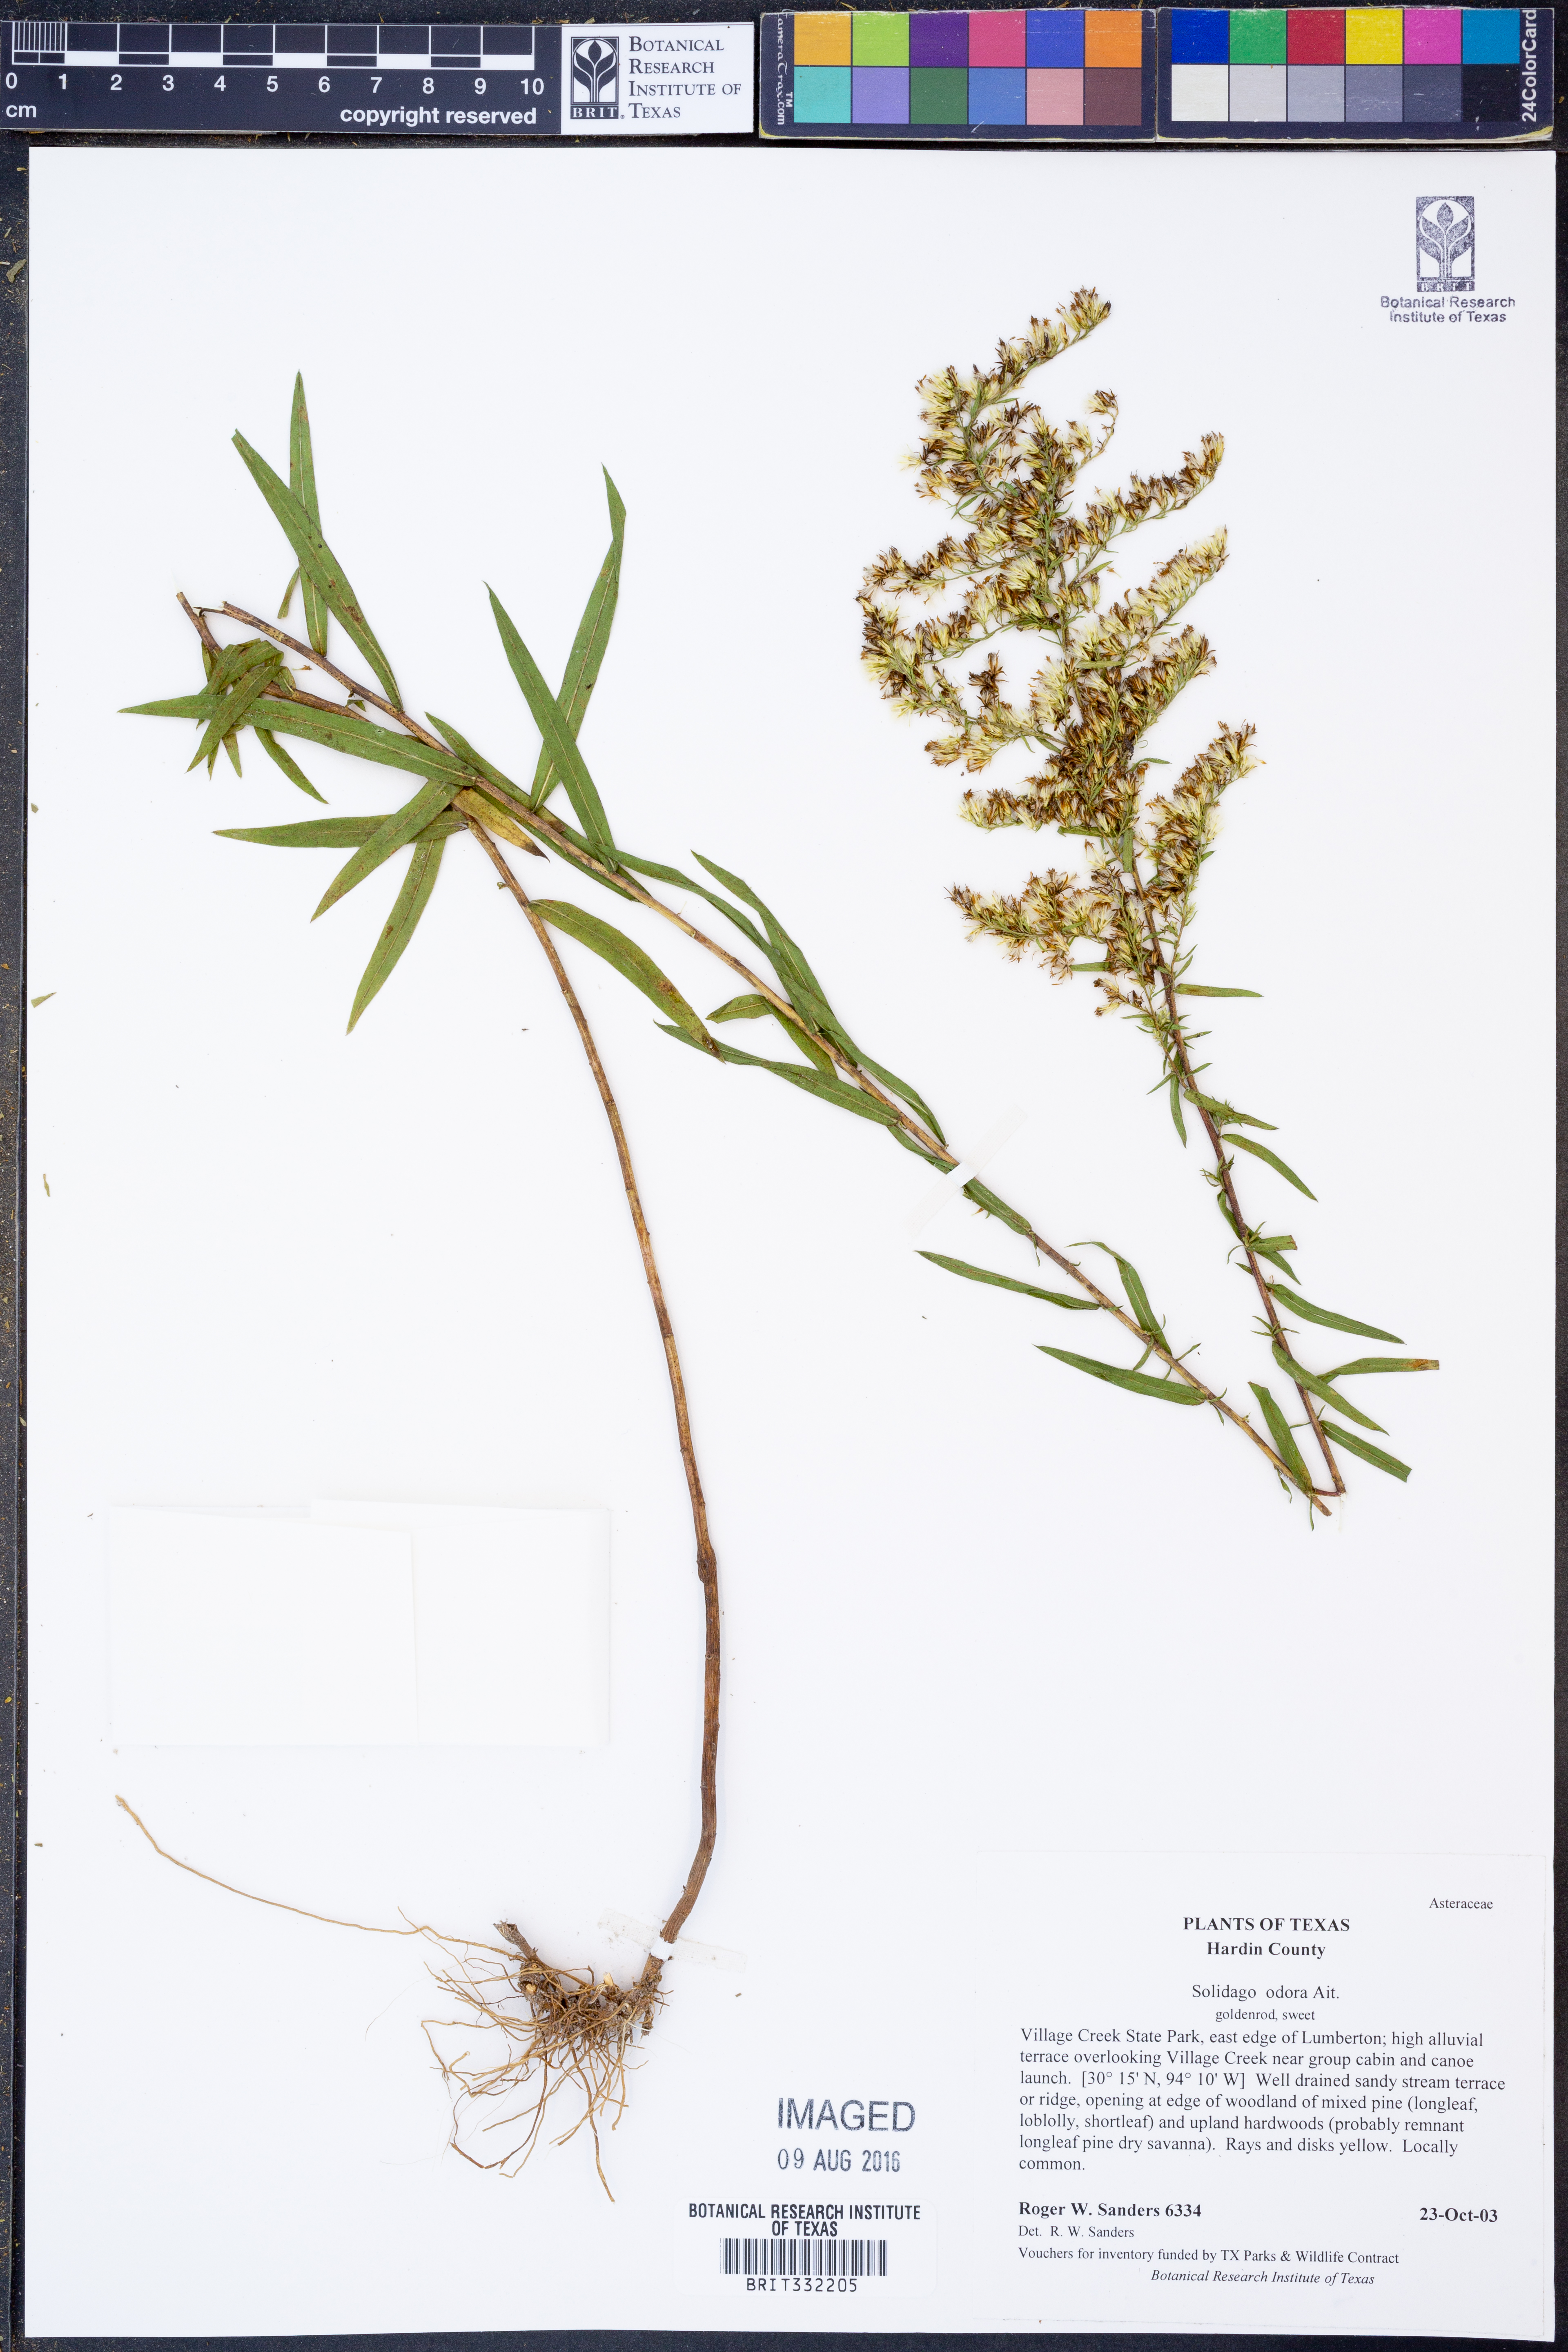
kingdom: Plantae
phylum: Tracheophyta
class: Magnoliopsida
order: Asterales
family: Asteraceae
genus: Solidago
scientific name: Solidago odora
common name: Anise-scented goldenrod
